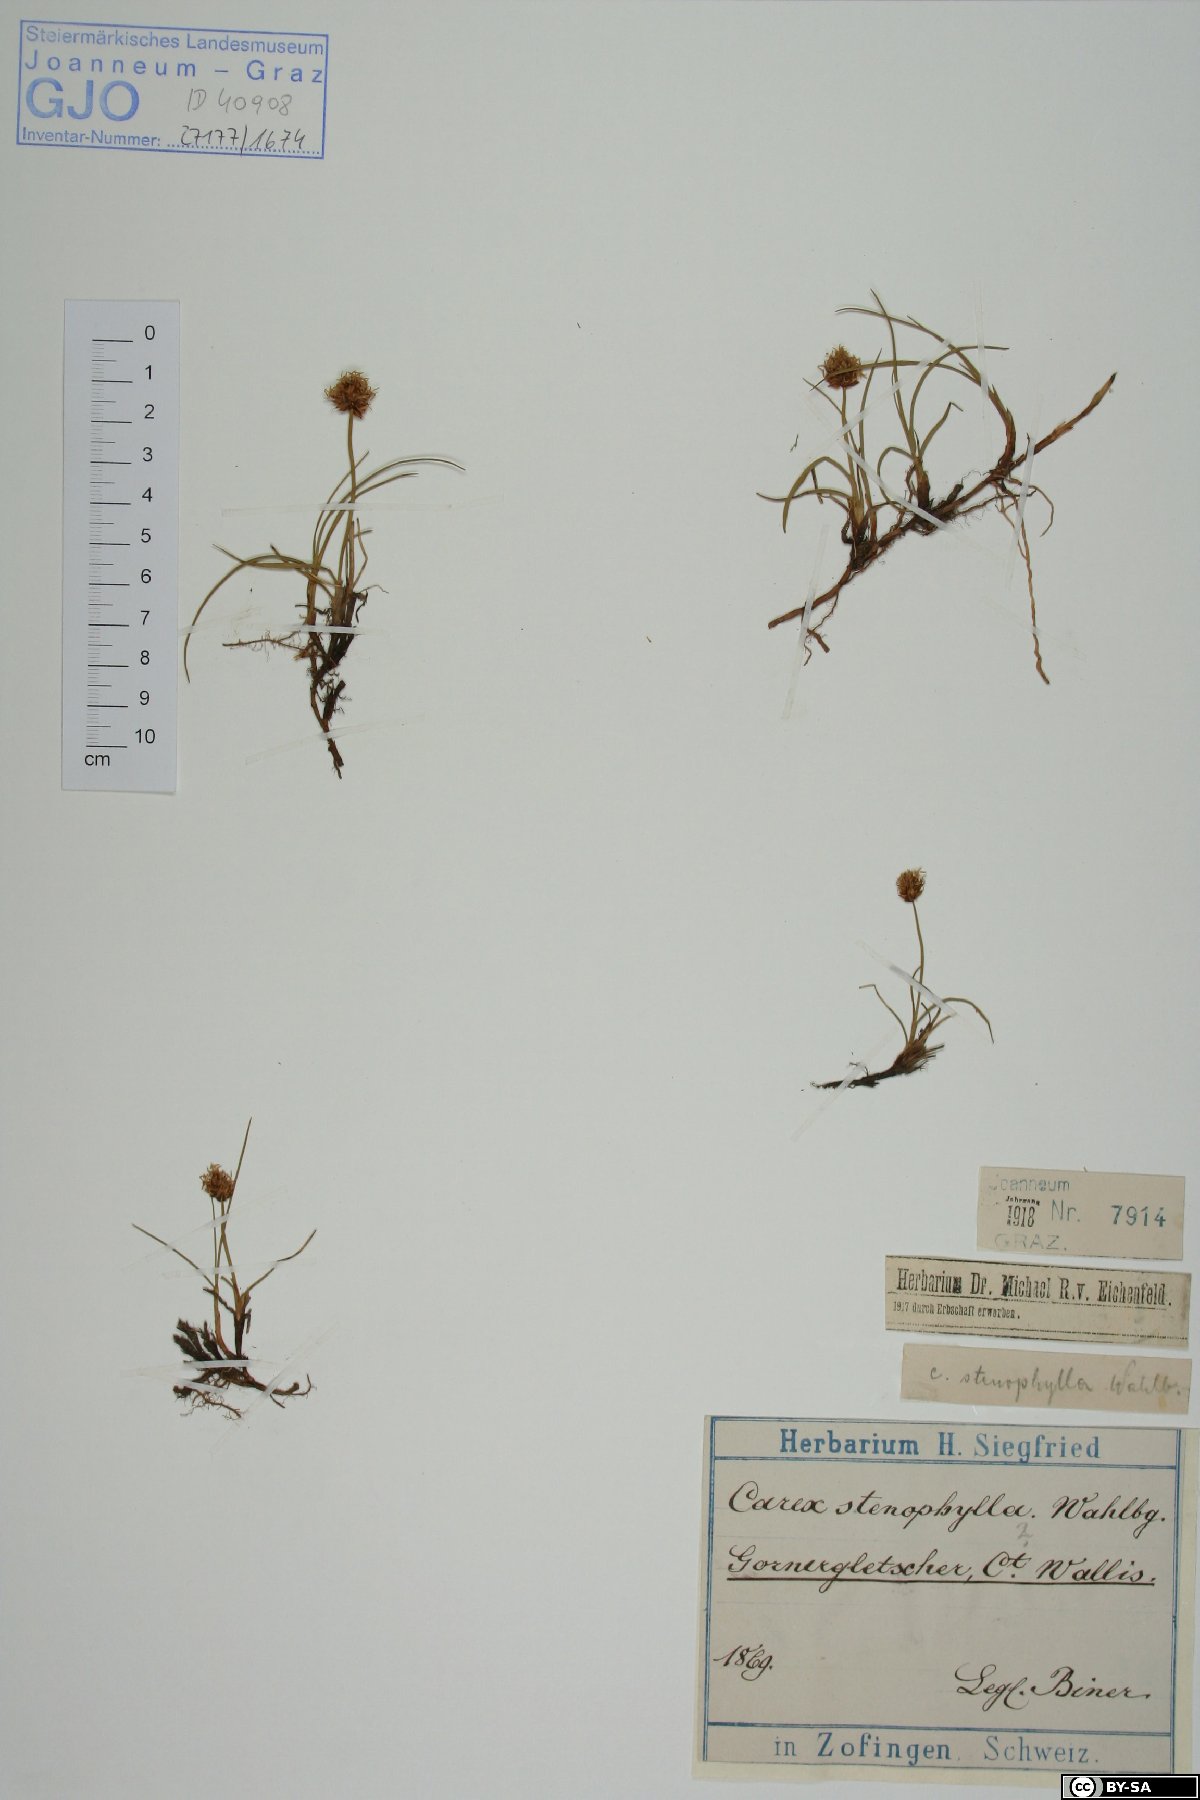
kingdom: Plantae
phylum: Tracheophyta
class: Liliopsida
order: Poales
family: Cyperaceae
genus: Carex
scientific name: Carex stenophylla
